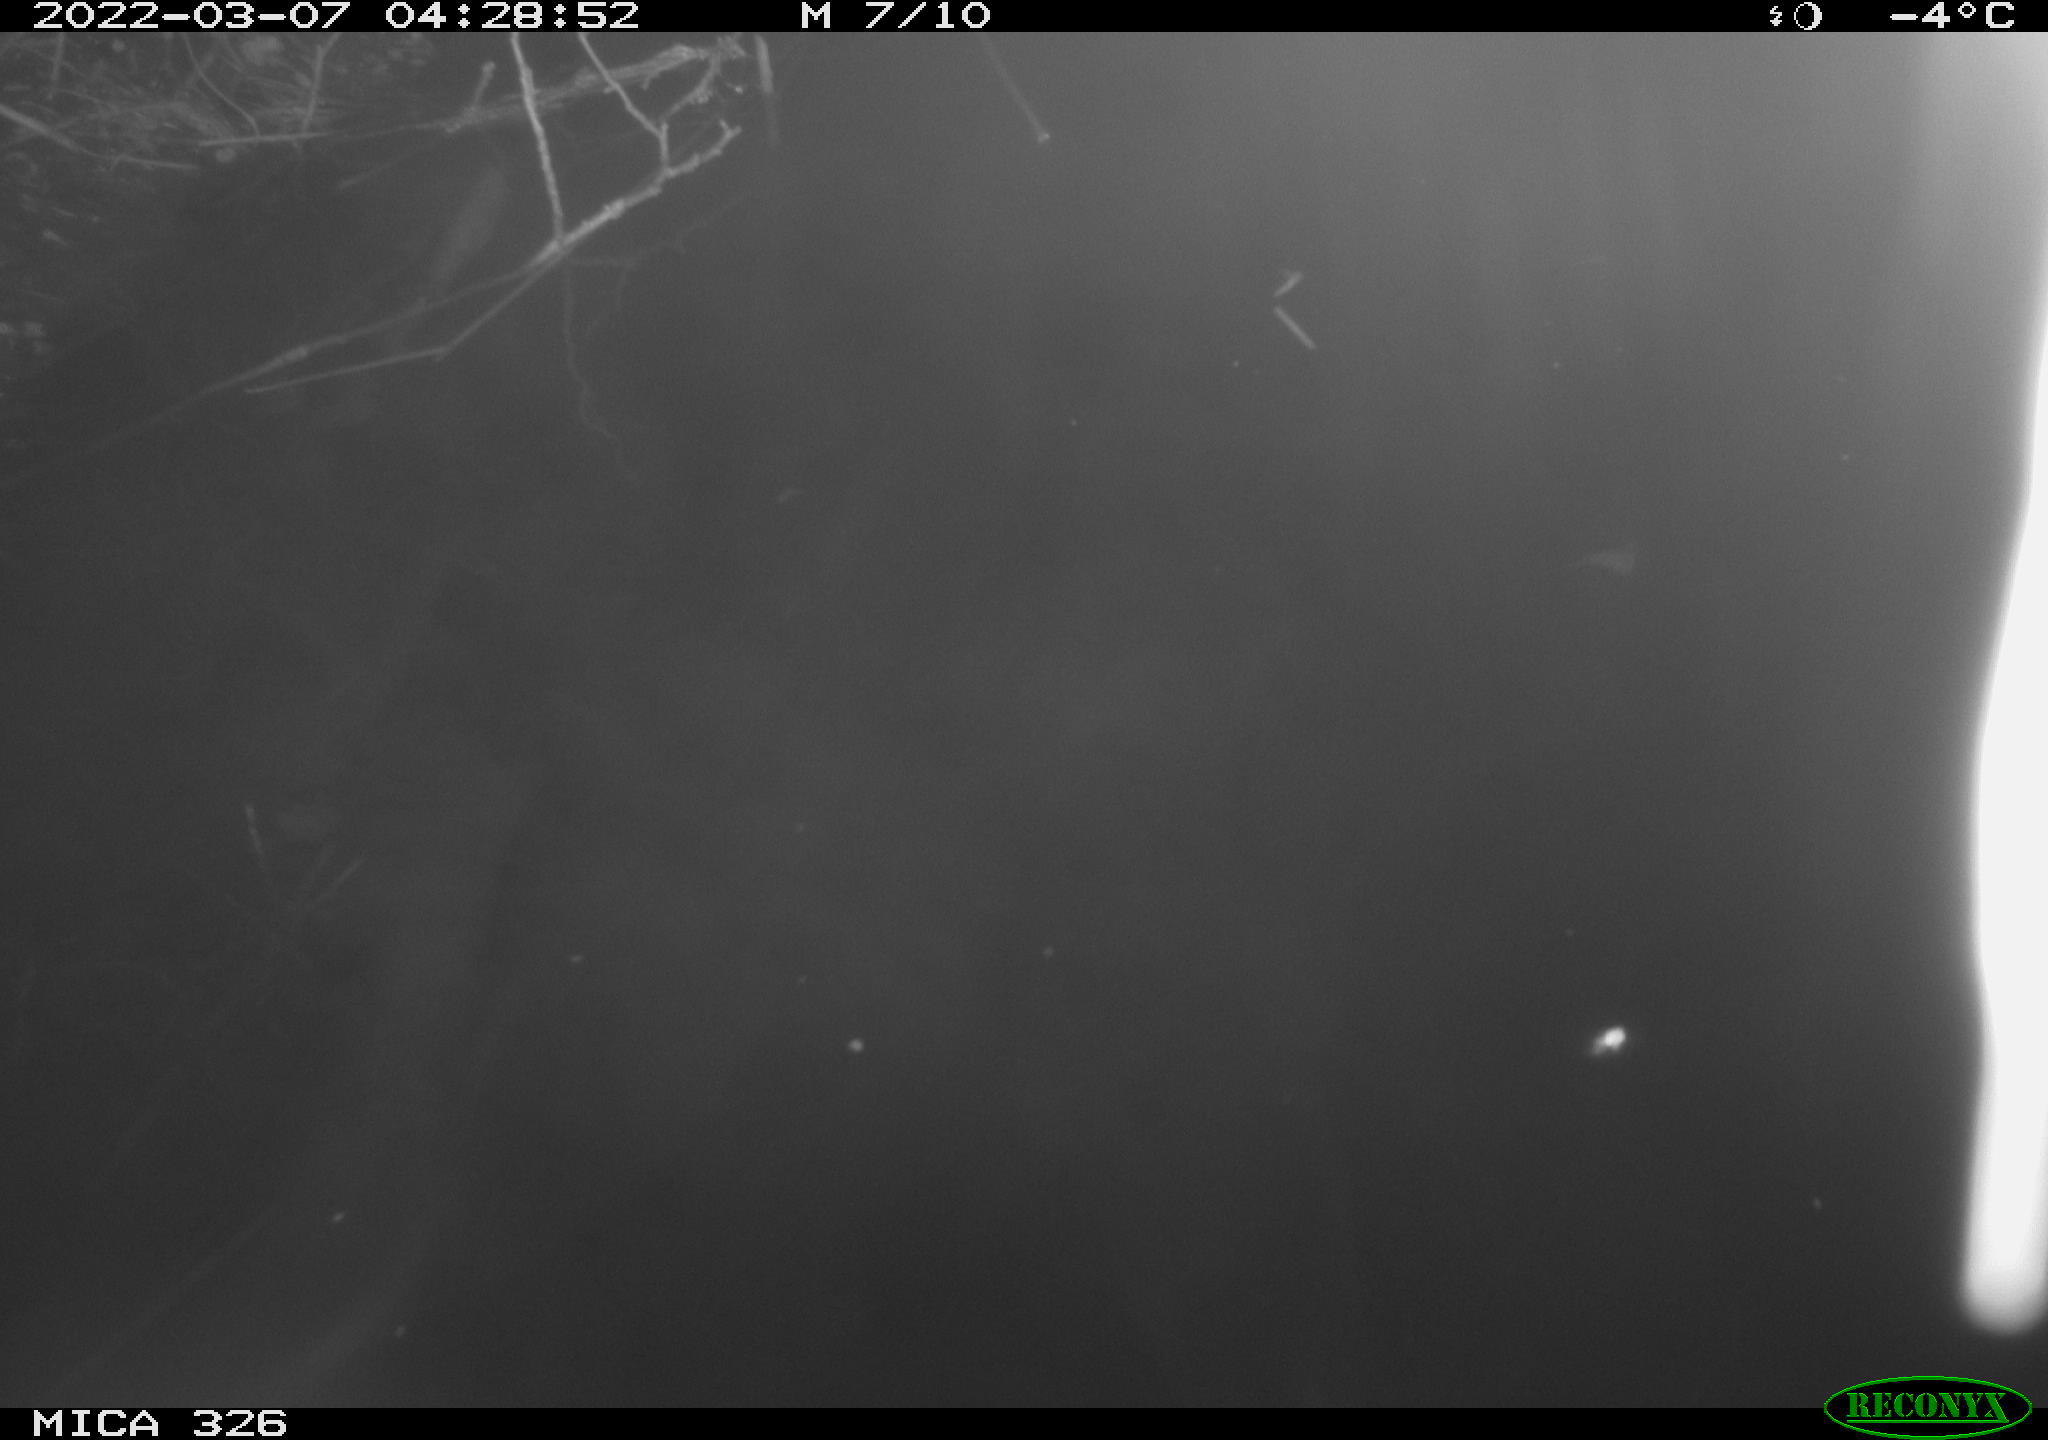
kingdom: Animalia
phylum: Chordata
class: Mammalia
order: Rodentia
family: Cricetidae
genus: Ondatra
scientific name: Ondatra zibethicus
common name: Muskrat
